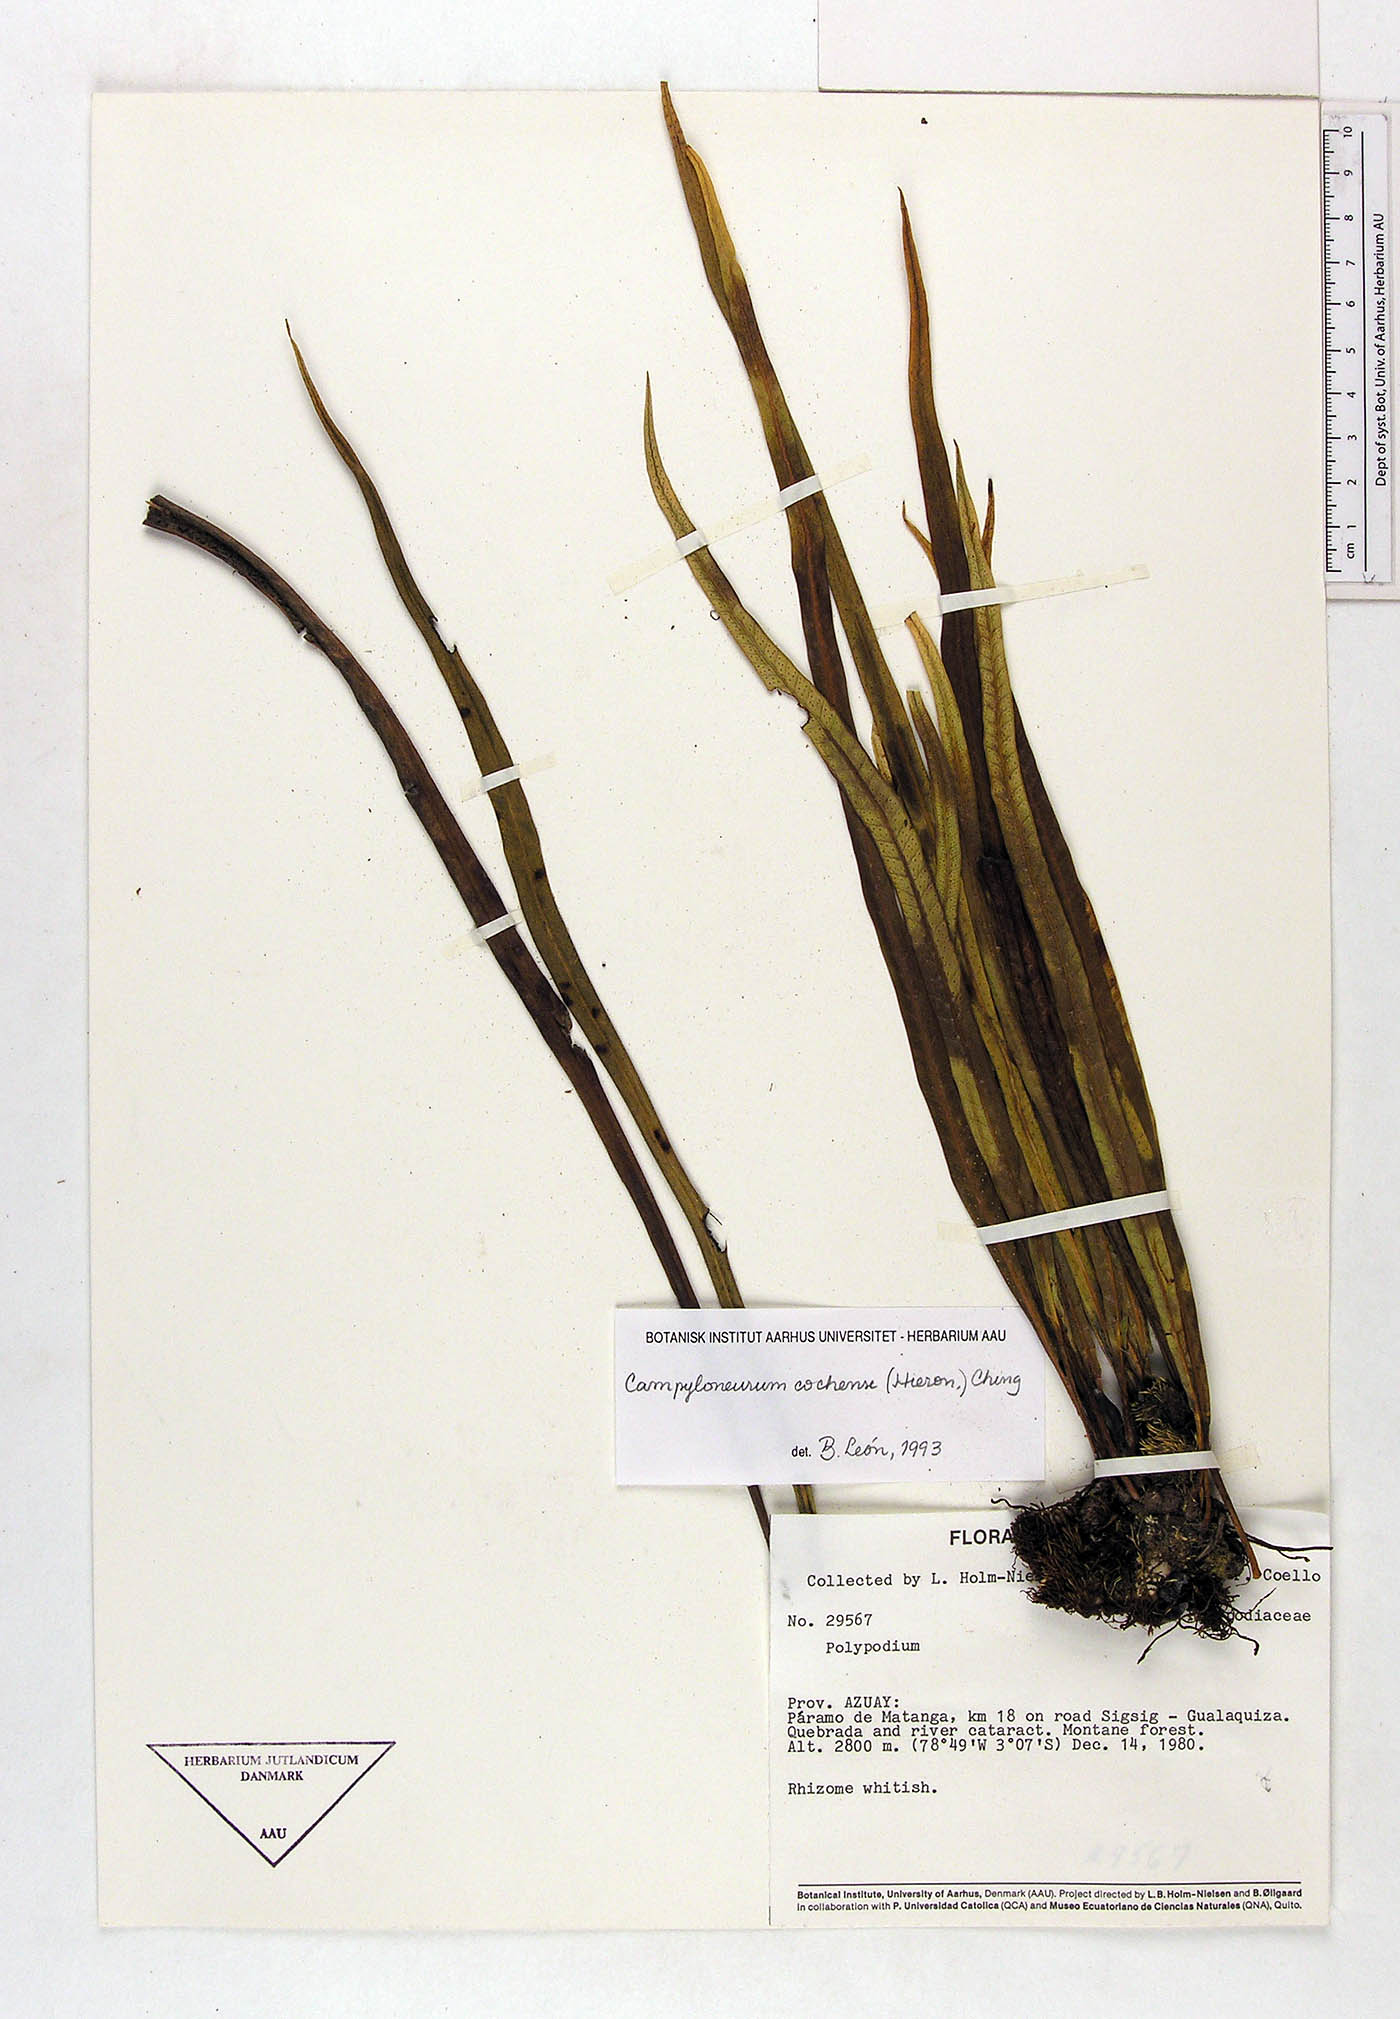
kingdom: Plantae
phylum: Tracheophyta
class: Polypodiopsida
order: Polypodiales
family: Polypodiaceae
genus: Campyloneurum
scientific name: Campyloneurum cochense
